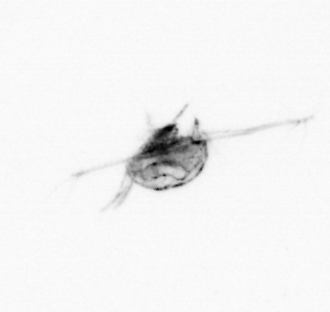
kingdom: Animalia
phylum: Arthropoda
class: Copepoda
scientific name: Copepoda
